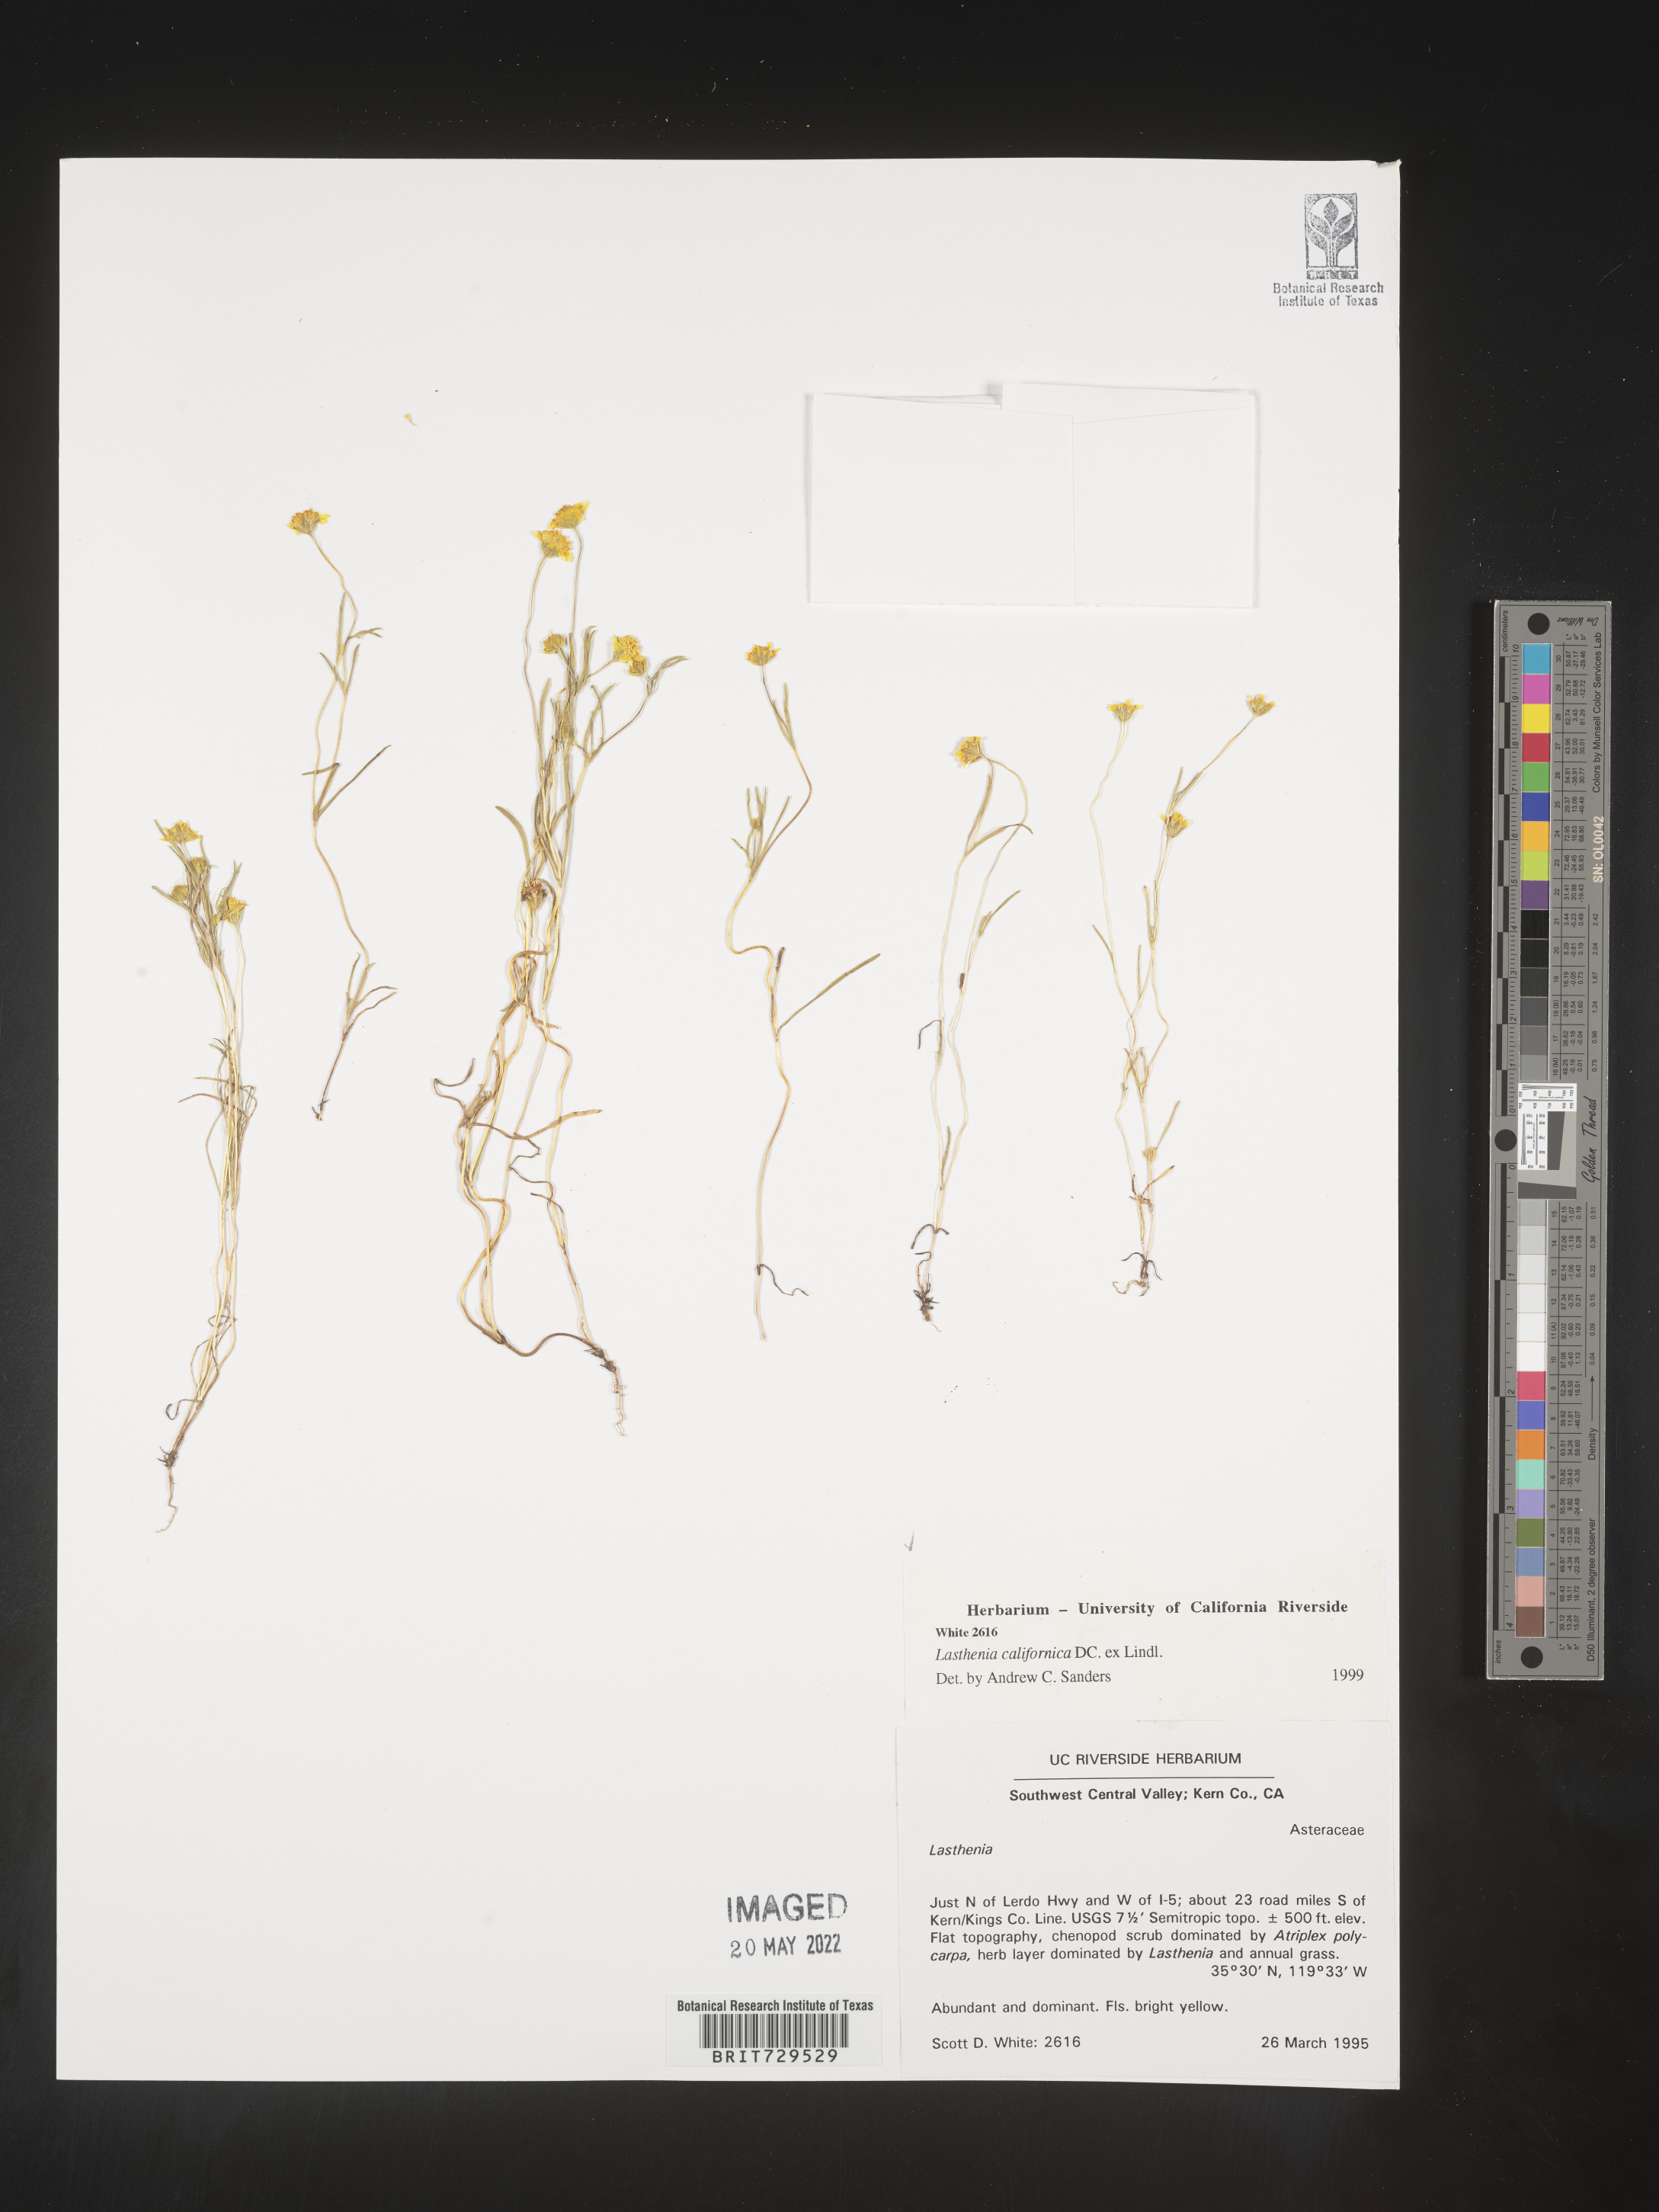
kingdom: Plantae
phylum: Tracheophyta
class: Magnoliopsida
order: Asterales
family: Asteraceae
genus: Lasthenia
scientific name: Lasthenia
